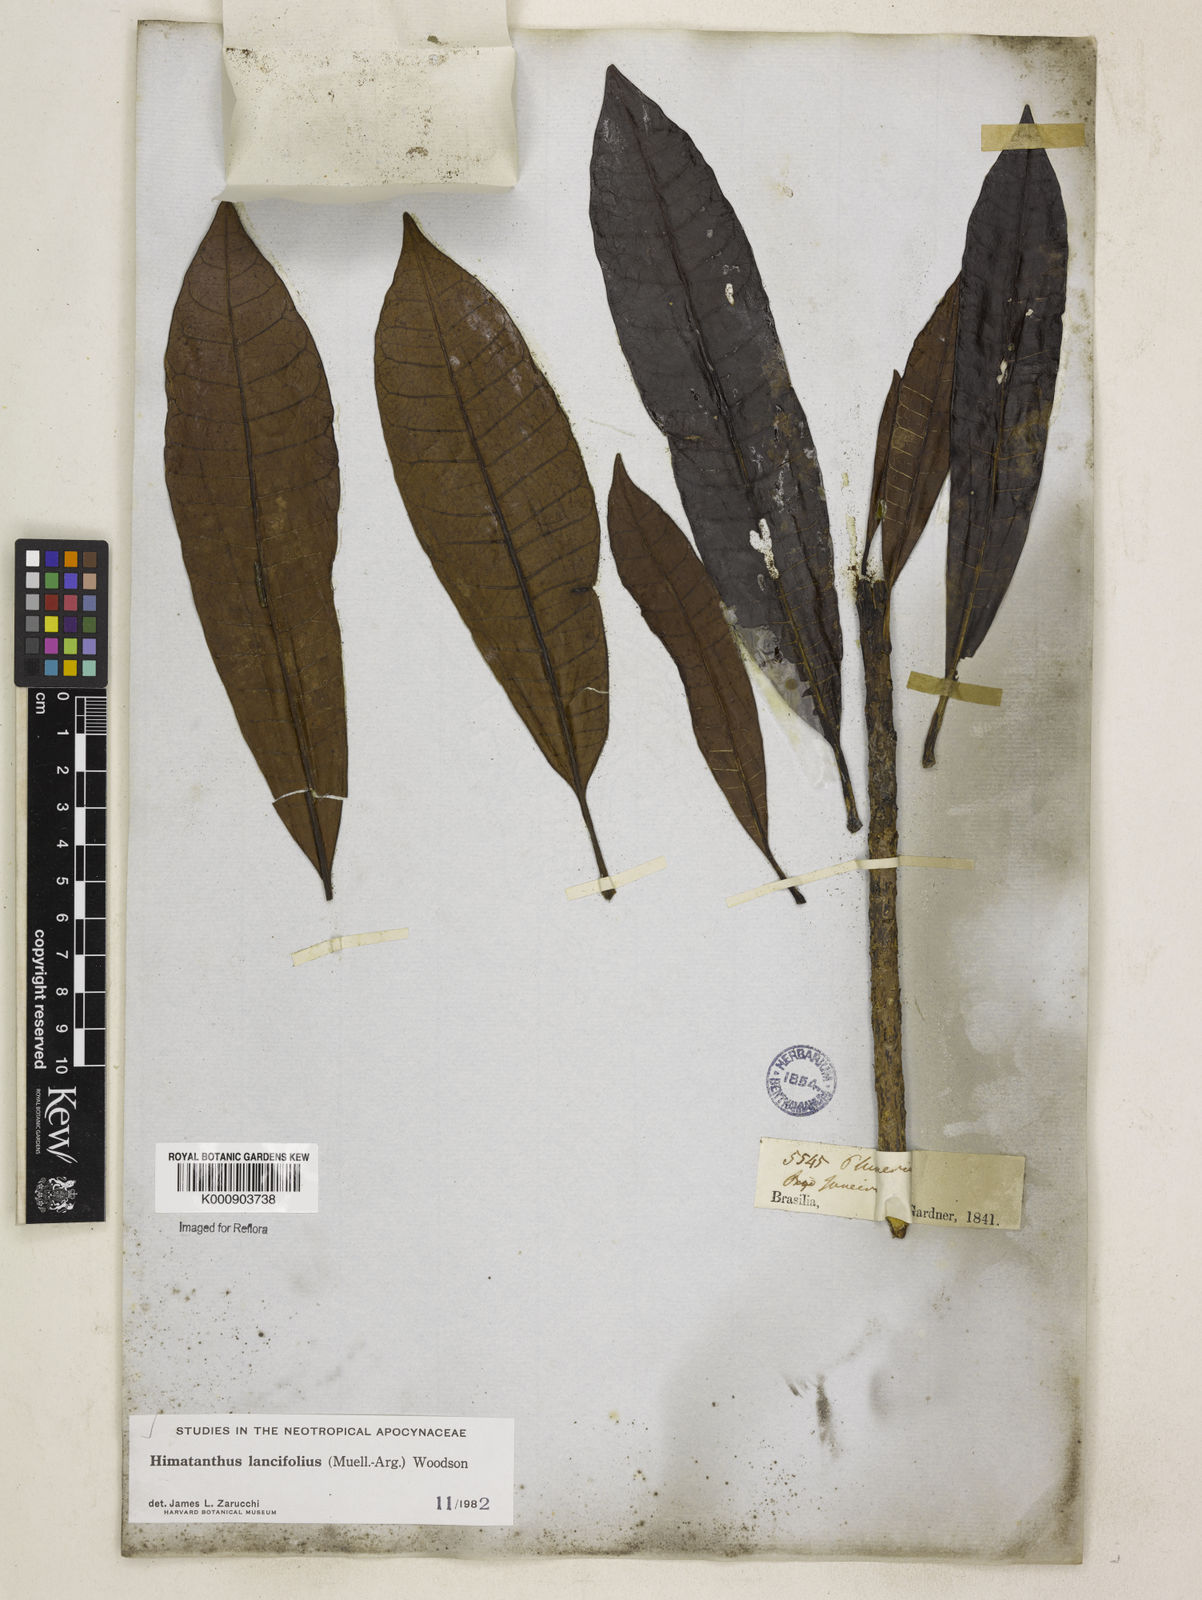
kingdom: Plantae
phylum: Tracheophyta
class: Magnoliopsida
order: Gentianales
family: Apocynaceae
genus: Himatanthus
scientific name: Himatanthus
